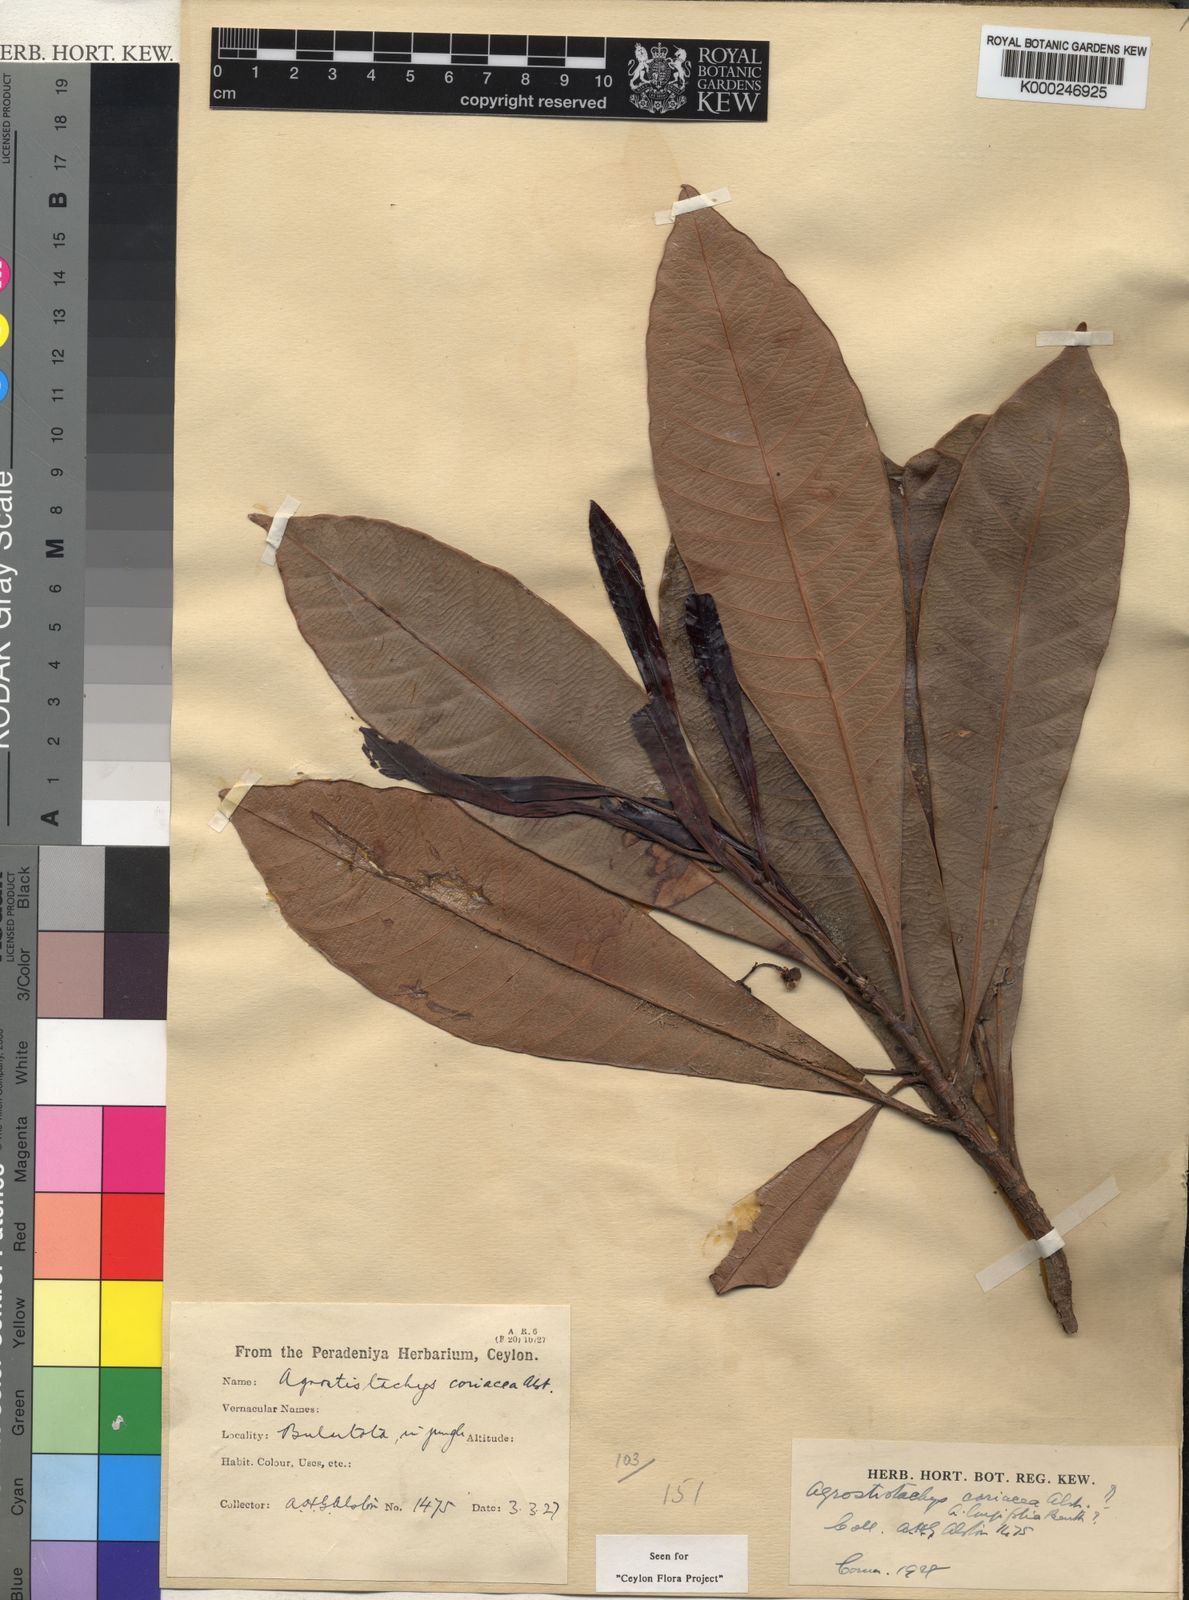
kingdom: Plantae
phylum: Tracheophyta
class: Magnoliopsida
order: Malpighiales
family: Euphorbiaceae
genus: Agrostistachys
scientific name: Agrostistachys borneensis
